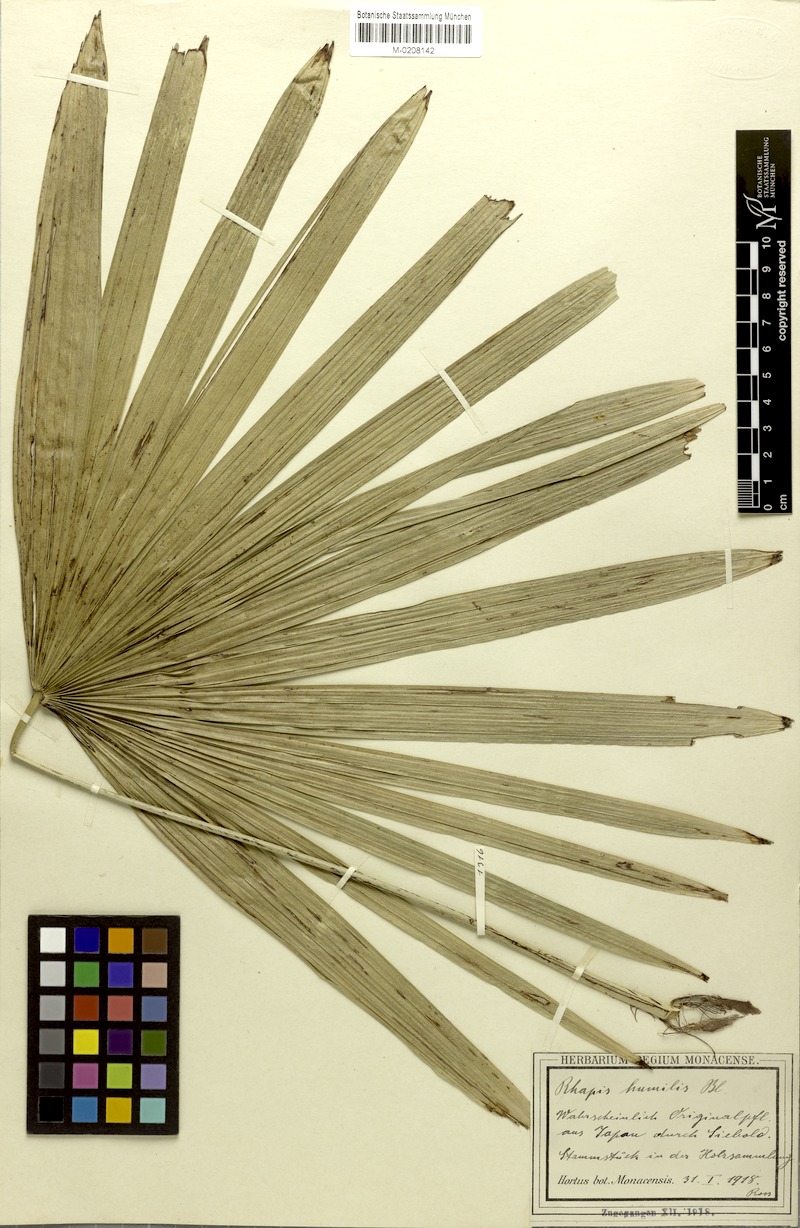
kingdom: Plantae
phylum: Tracheophyta
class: Liliopsida
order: Arecales
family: Arecaceae
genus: Rhapis
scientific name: Rhapis humilis
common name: Reed rhapis
